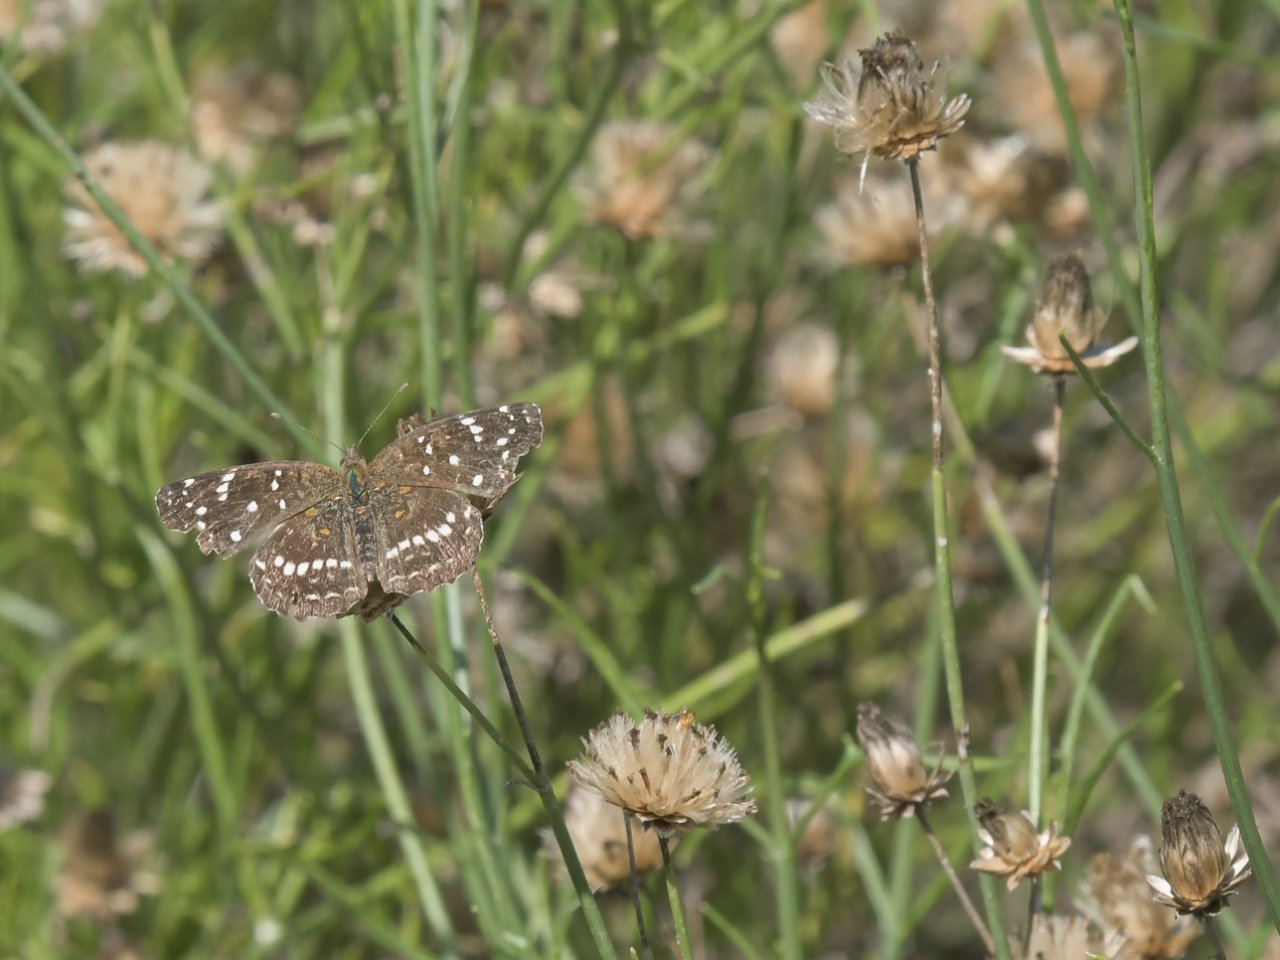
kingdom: Animalia
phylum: Arthropoda
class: Insecta
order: Lepidoptera
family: Nymphalidae
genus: Anthanassa
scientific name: Anthanassa texana
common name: Texan Crescent
